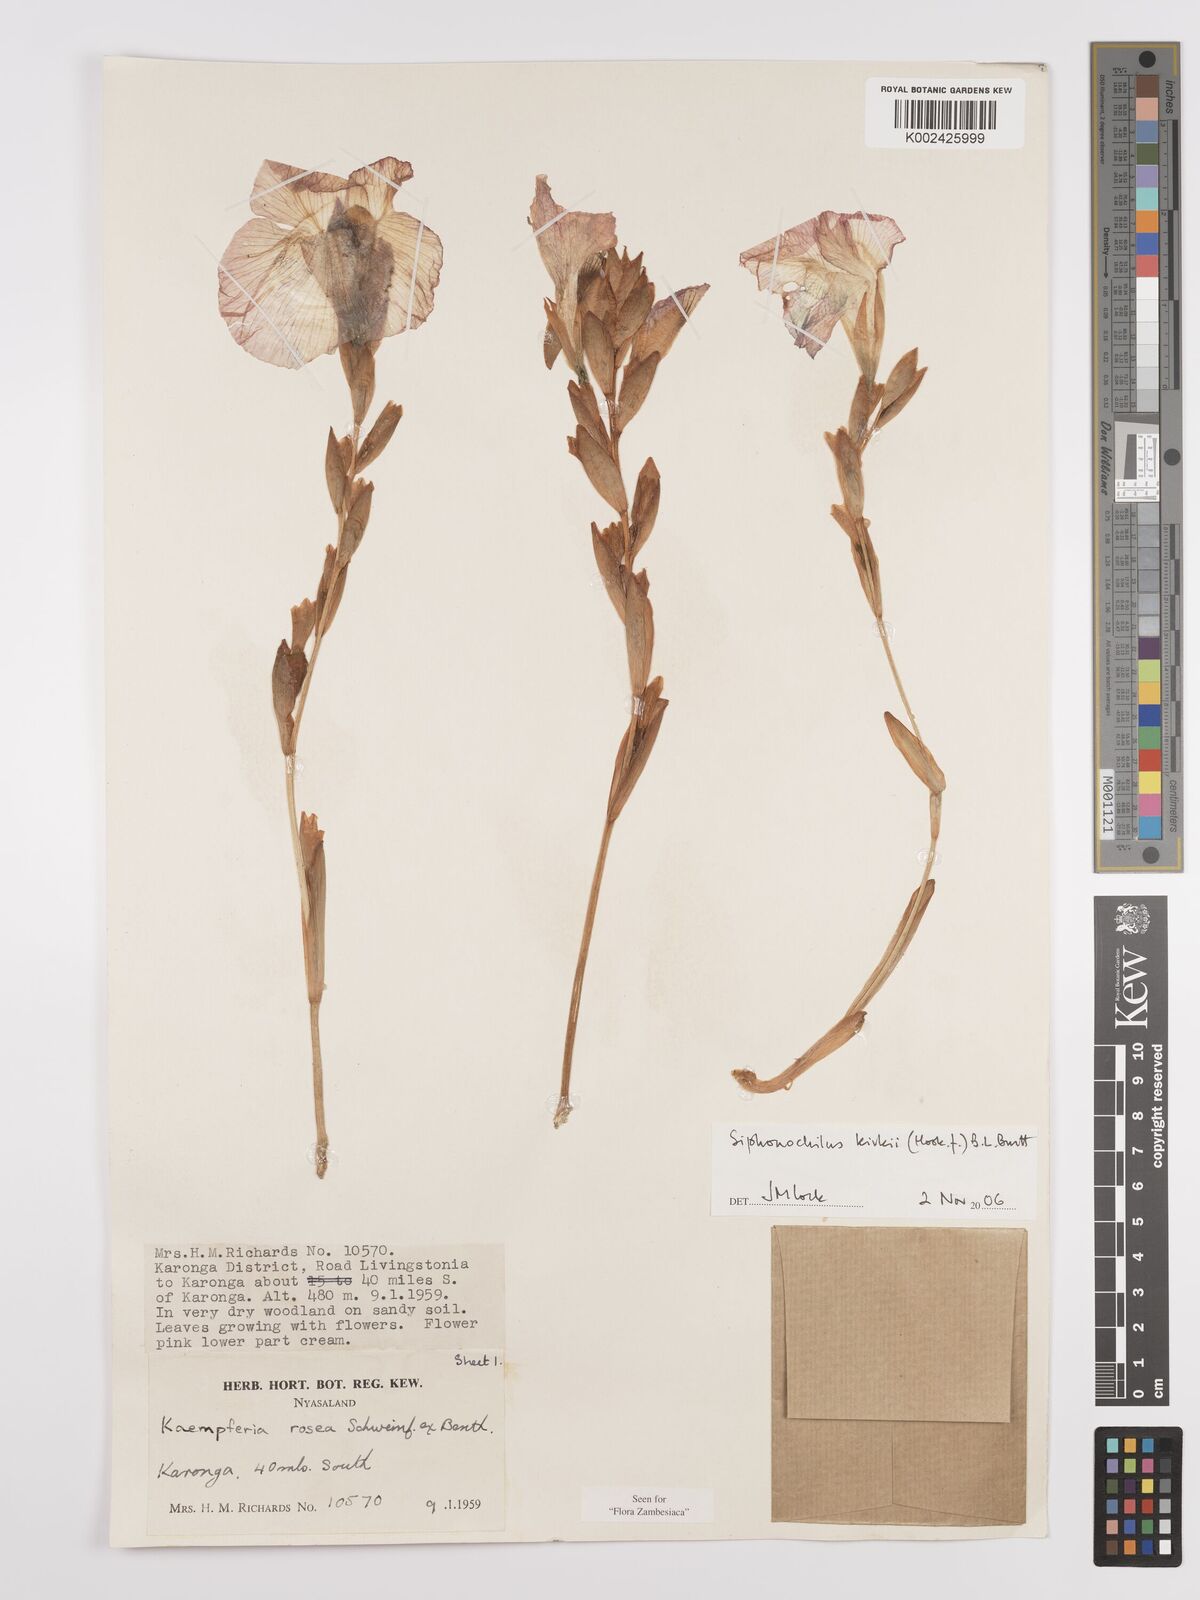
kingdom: Plantae
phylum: Tracheophyta
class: Liliopsida
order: Zingiberales
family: Zingiberaceae
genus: Siphonochilus
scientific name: Siphonochilus kirkii
